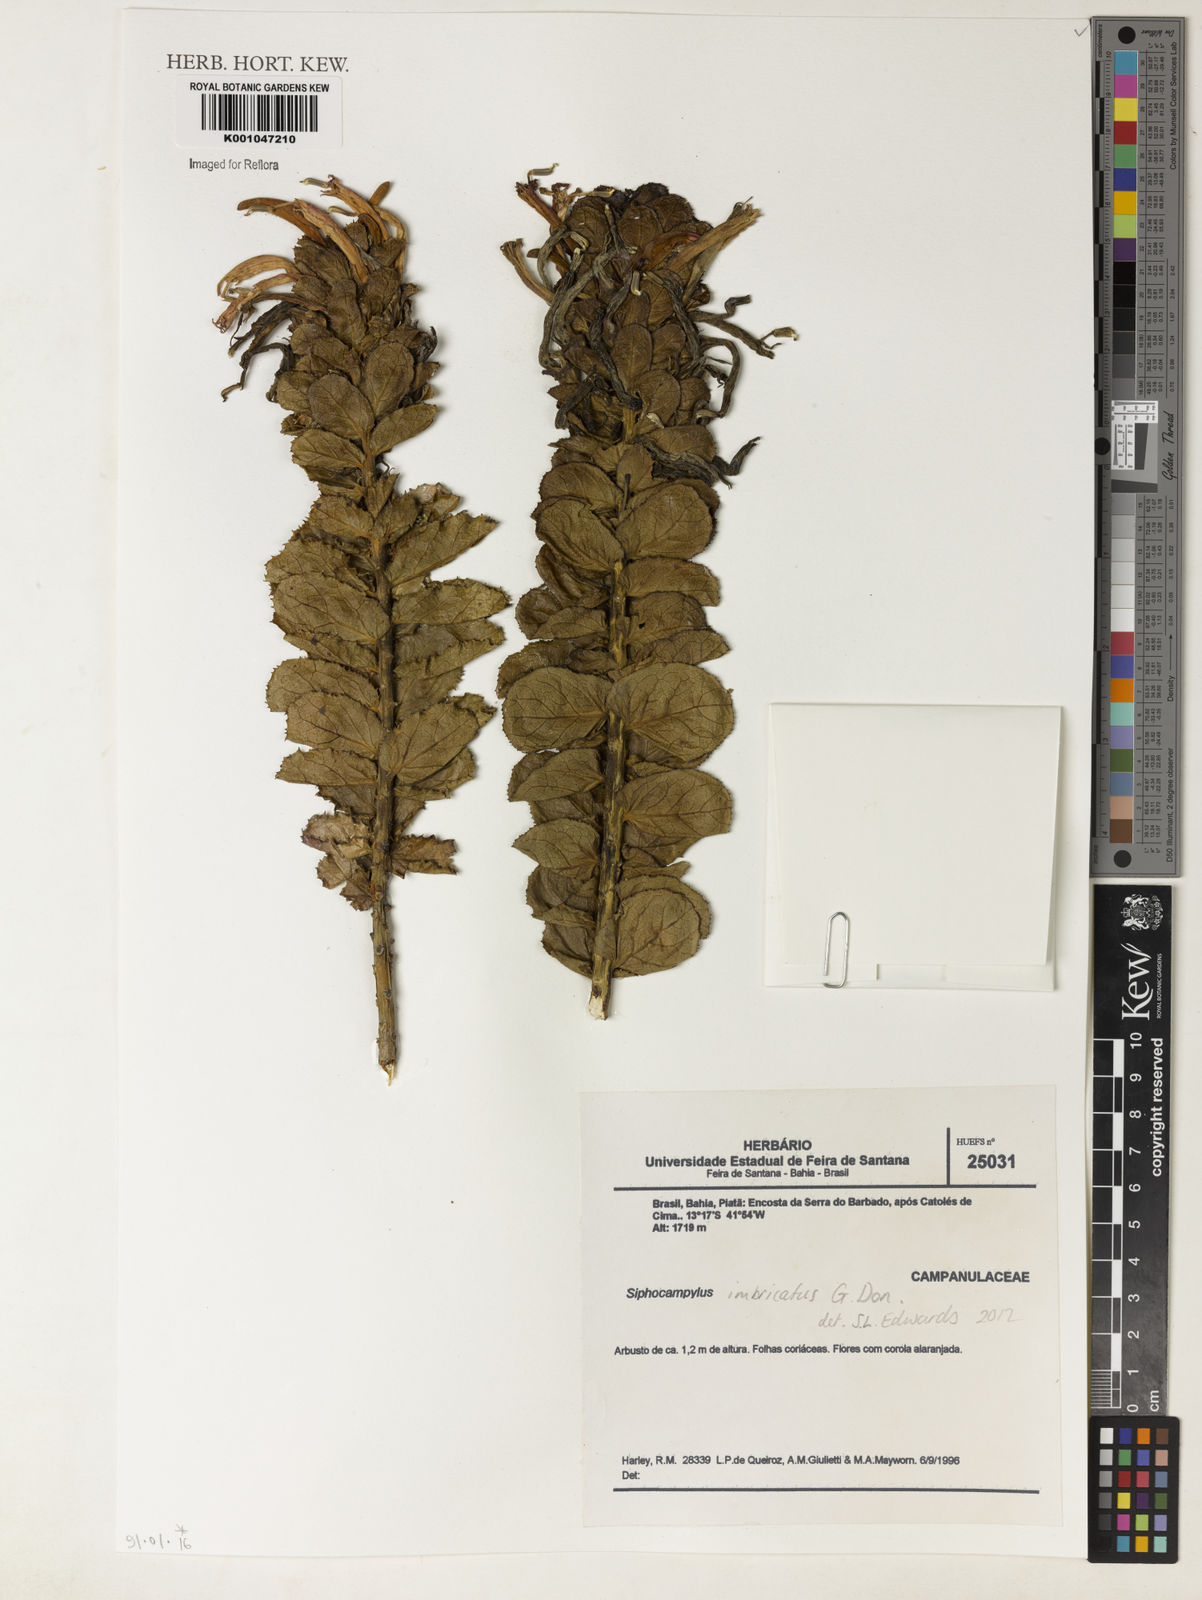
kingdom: Plantae
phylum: Tracheophyta
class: Magnoliopsida
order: Asterales
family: Campanulaceae
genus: Siphocampylus
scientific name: Siphocampylus imbricatus
